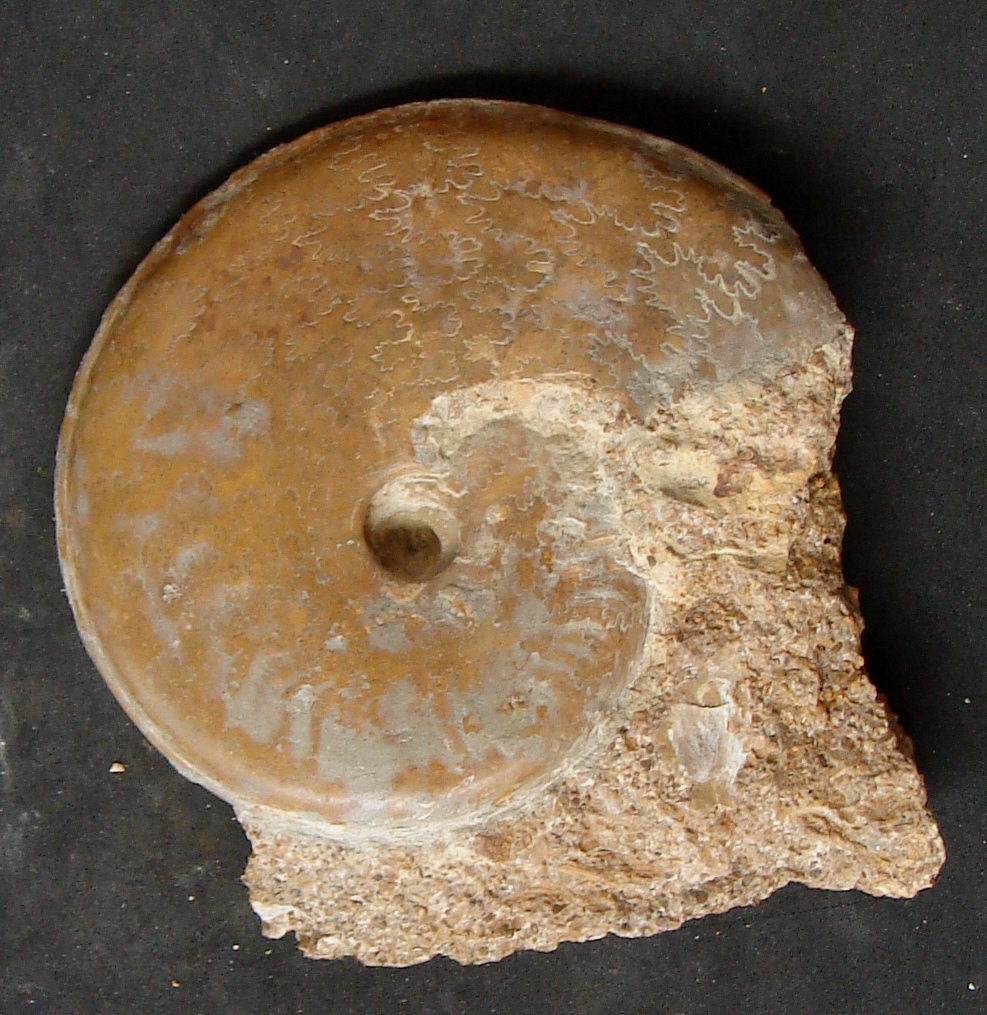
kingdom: Animalia
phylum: Mollusca
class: Cephalopoda
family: Graphoceratidae
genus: Hyperlioceras
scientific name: Hyperlioceras
